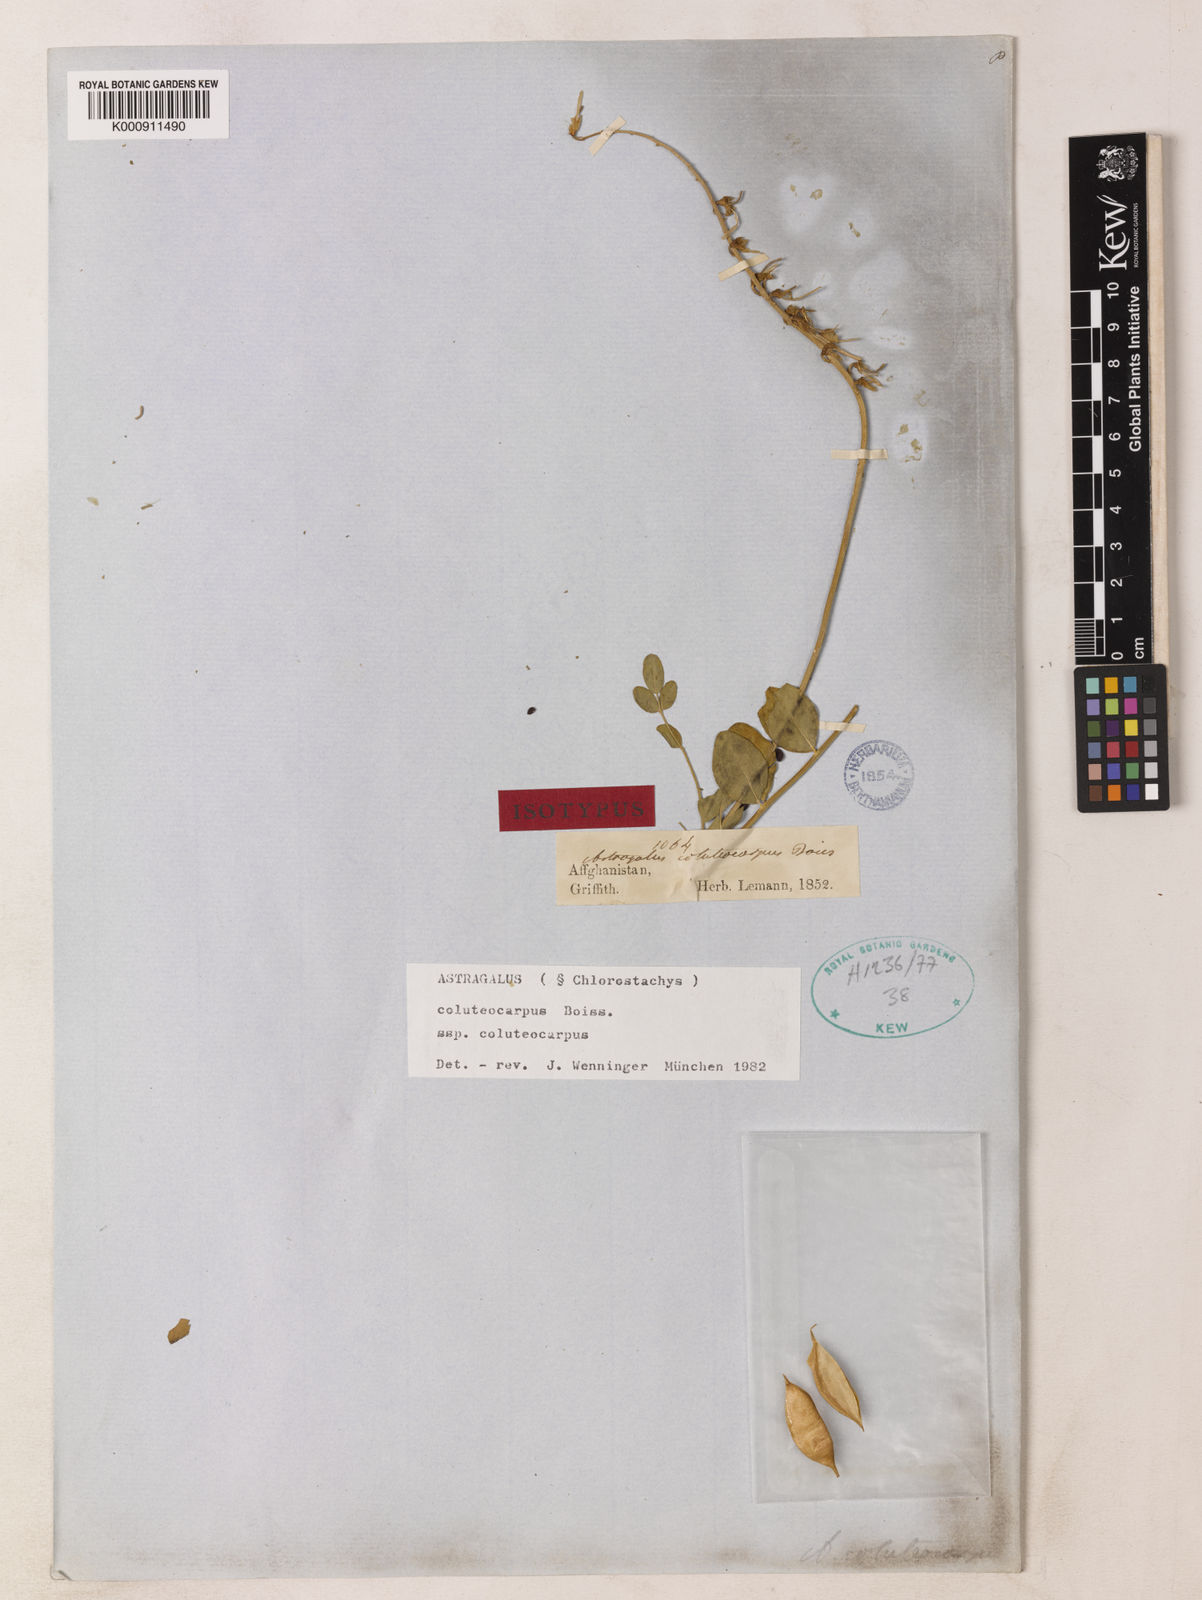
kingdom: Plantae
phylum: Tracheophyta
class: Magnoliopsida
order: Fabales
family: Fabaceae
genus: Astragalus
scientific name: Astragalus coluteocarpus
